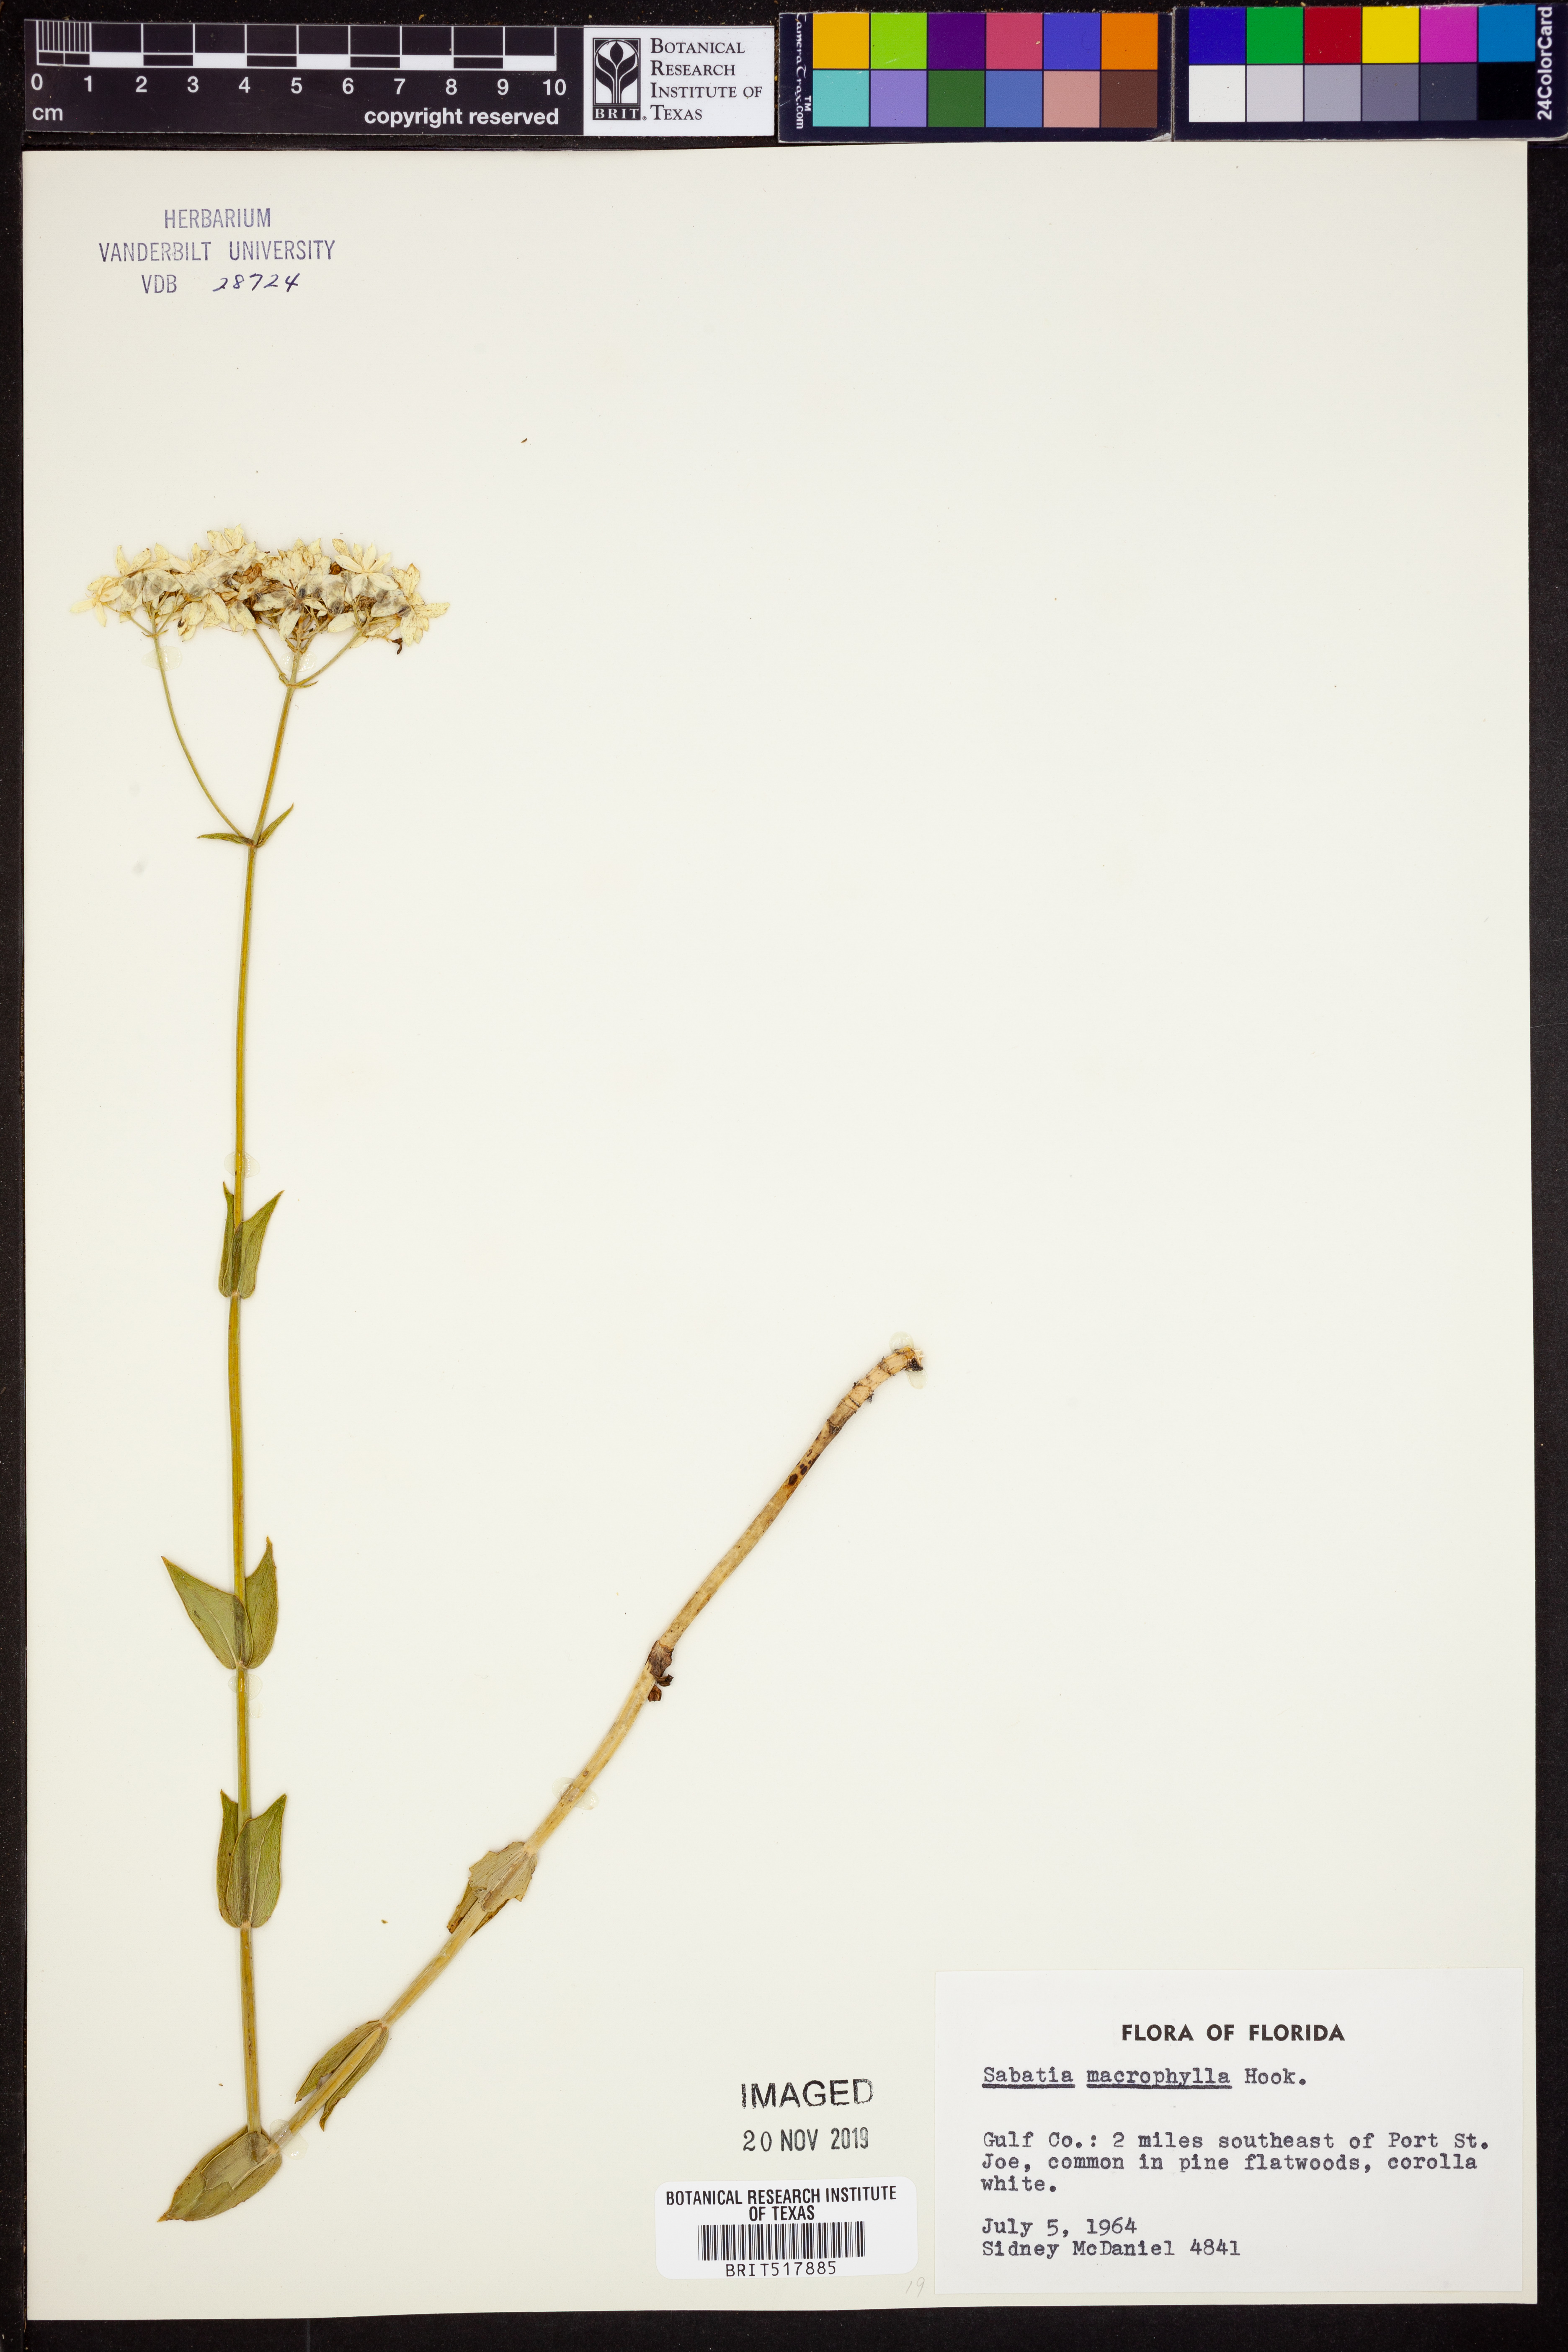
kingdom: Plantae
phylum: Tracheophyta
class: Magnoliopsida
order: Gentianales
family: Gentianaceae
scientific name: Gentianaceae
